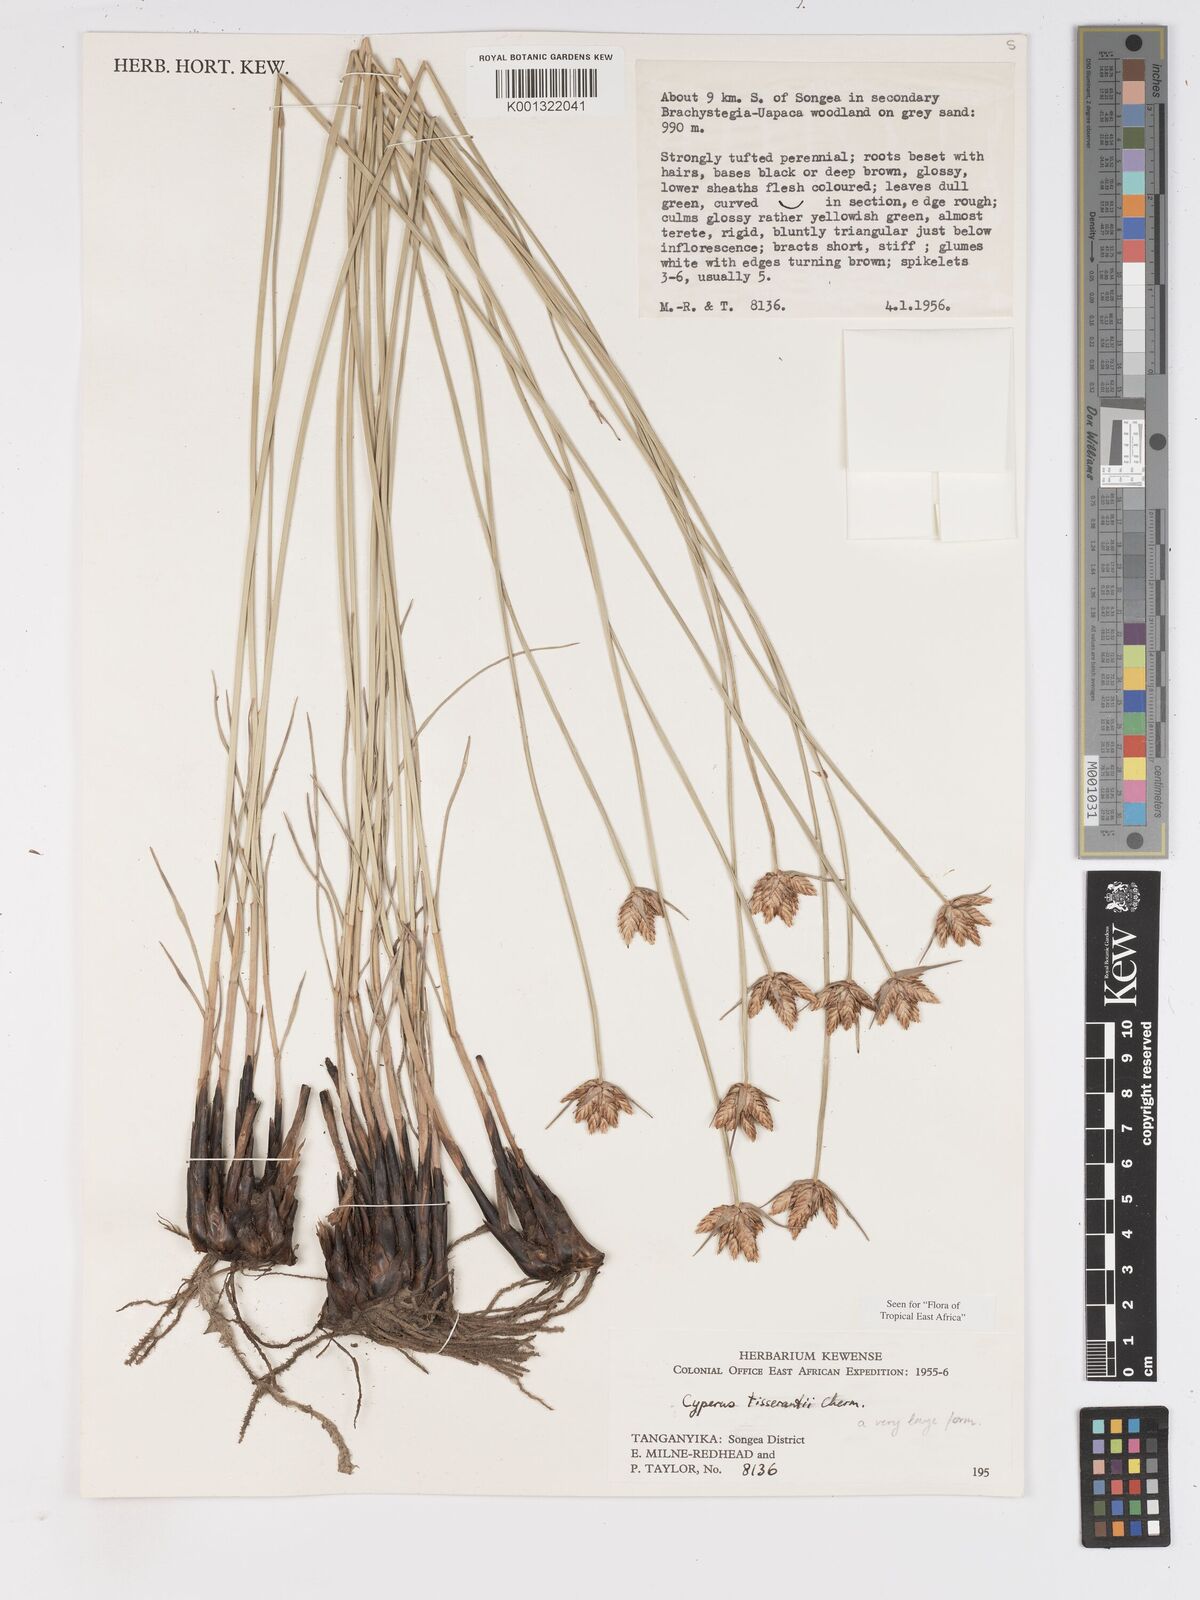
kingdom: Plantae
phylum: Tracheophyta
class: Liliopsida
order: Poales
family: Cyperaceae
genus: Cyperus
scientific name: Cyperus niveus
